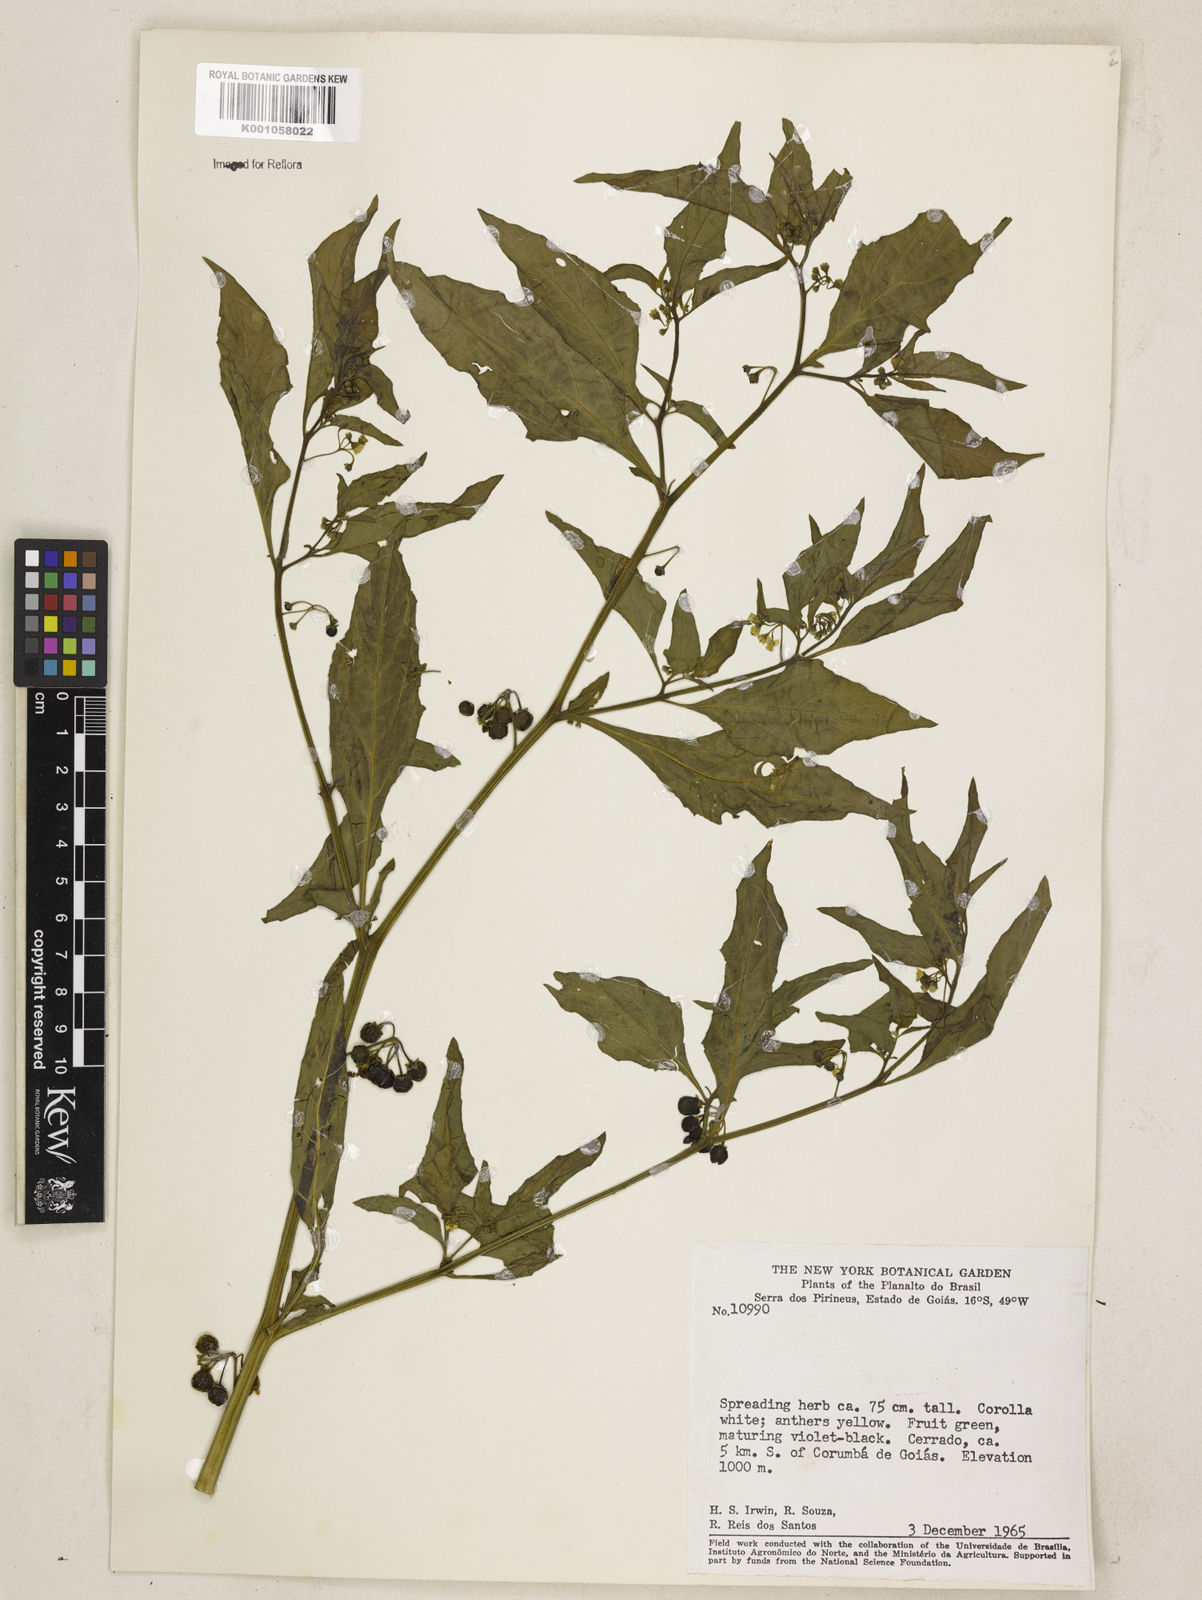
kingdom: Plantae
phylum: Tracheophyta
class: Magnoliopsida
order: Solanales
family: Solanaceae
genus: Solanum
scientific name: Solanum americanum
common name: American black nightshade
